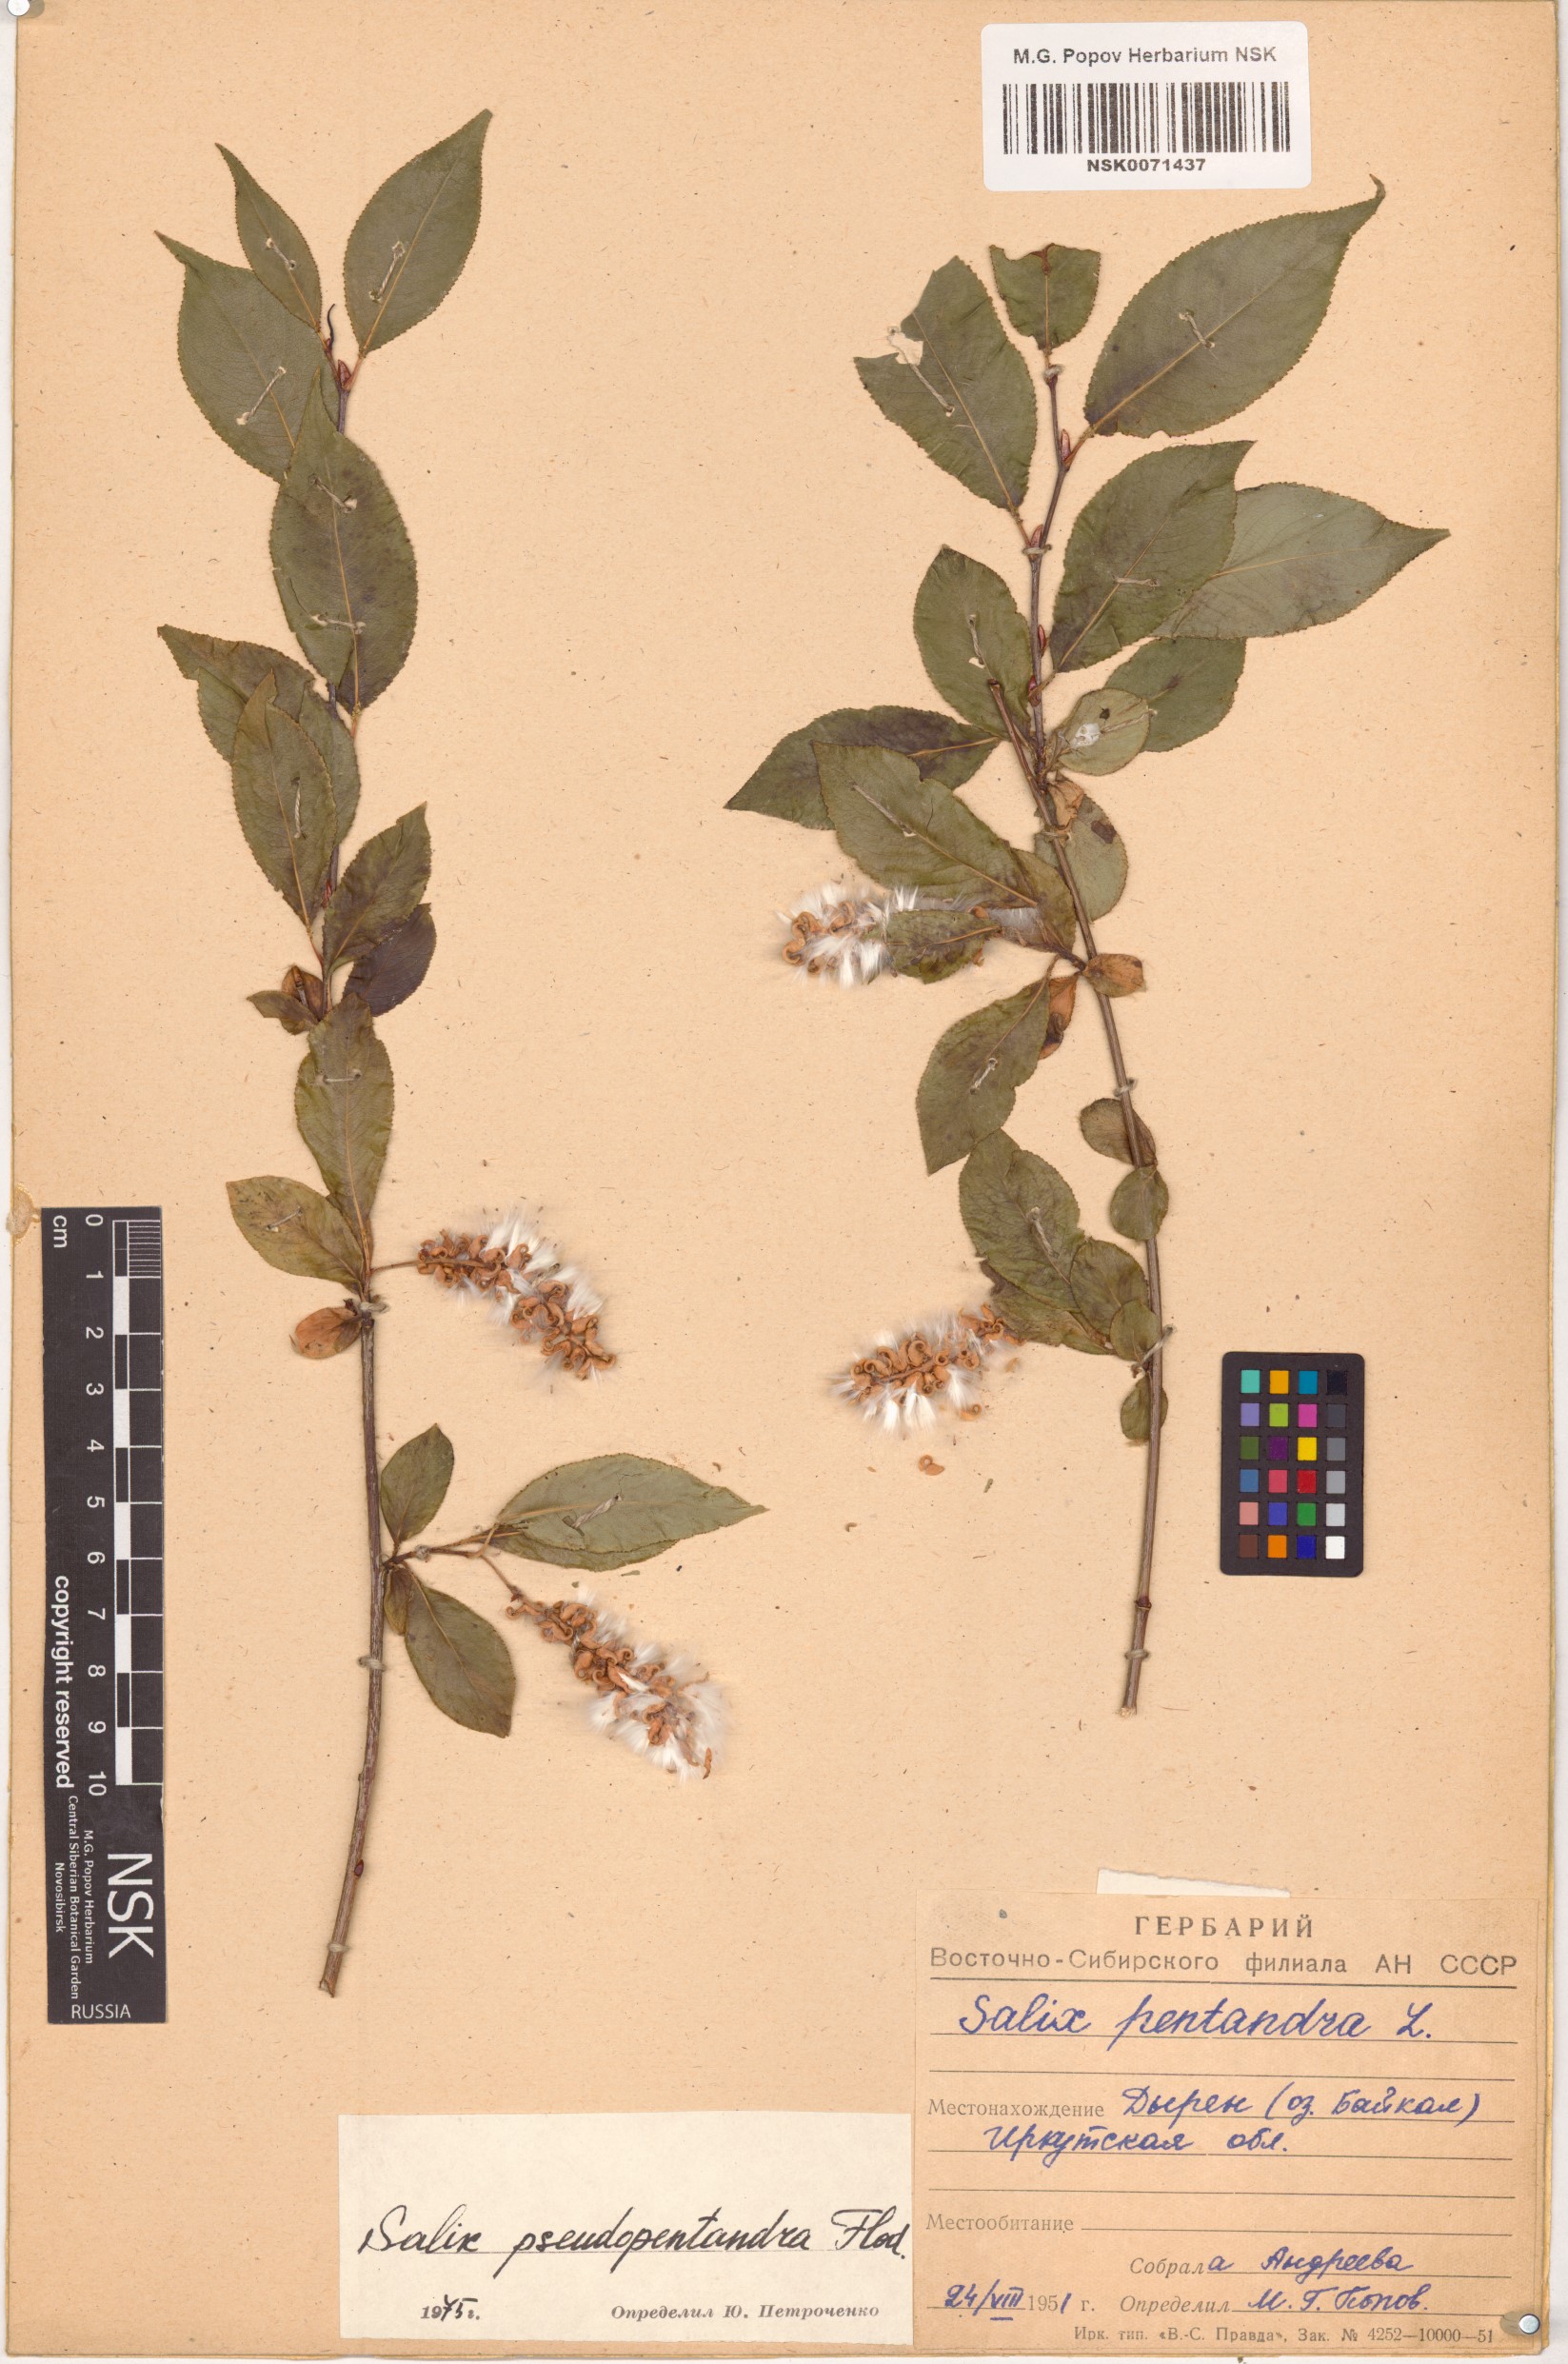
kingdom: Plantae
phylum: Tracheophyta
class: Magnoliopsida
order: Malpighiales
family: Salicaceae
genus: Salix
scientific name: Salix pseudopentandra
